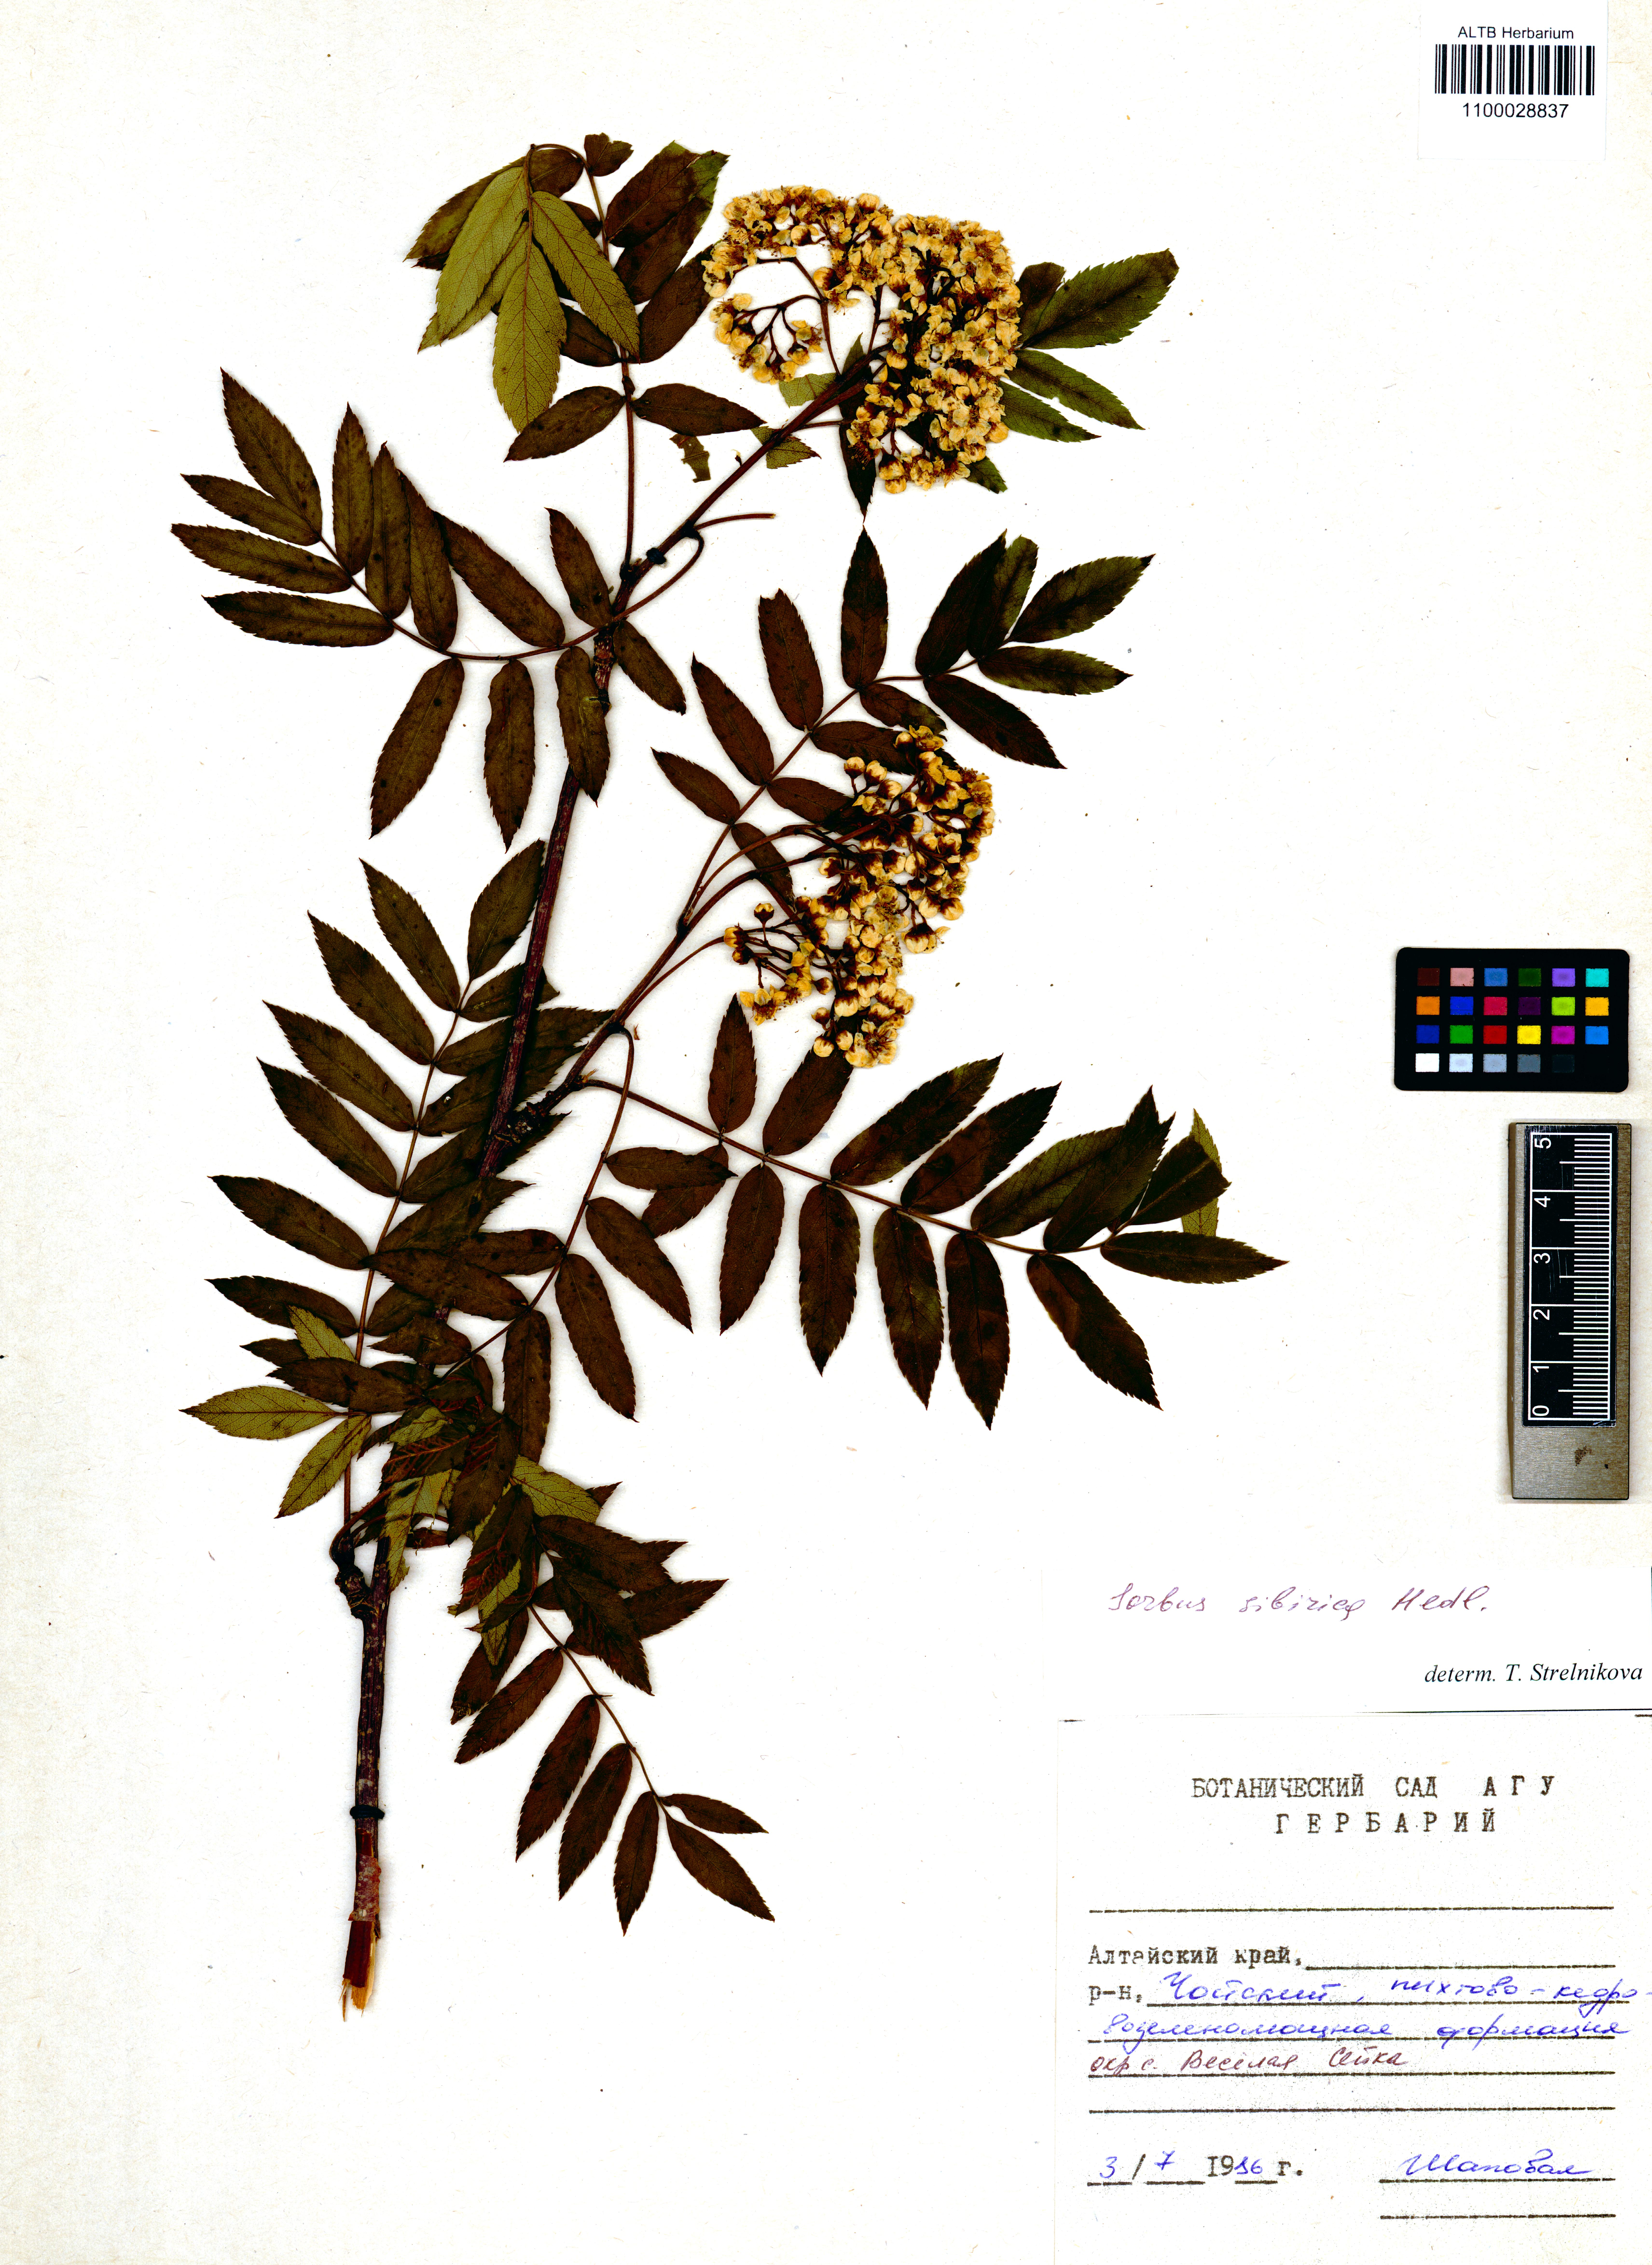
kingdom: Plantae
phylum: Tracheophyta
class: Magnoliopsida
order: Rosales
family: Rosaceae
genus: Sorbus
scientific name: Sorbus aucuparia
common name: Rowan
